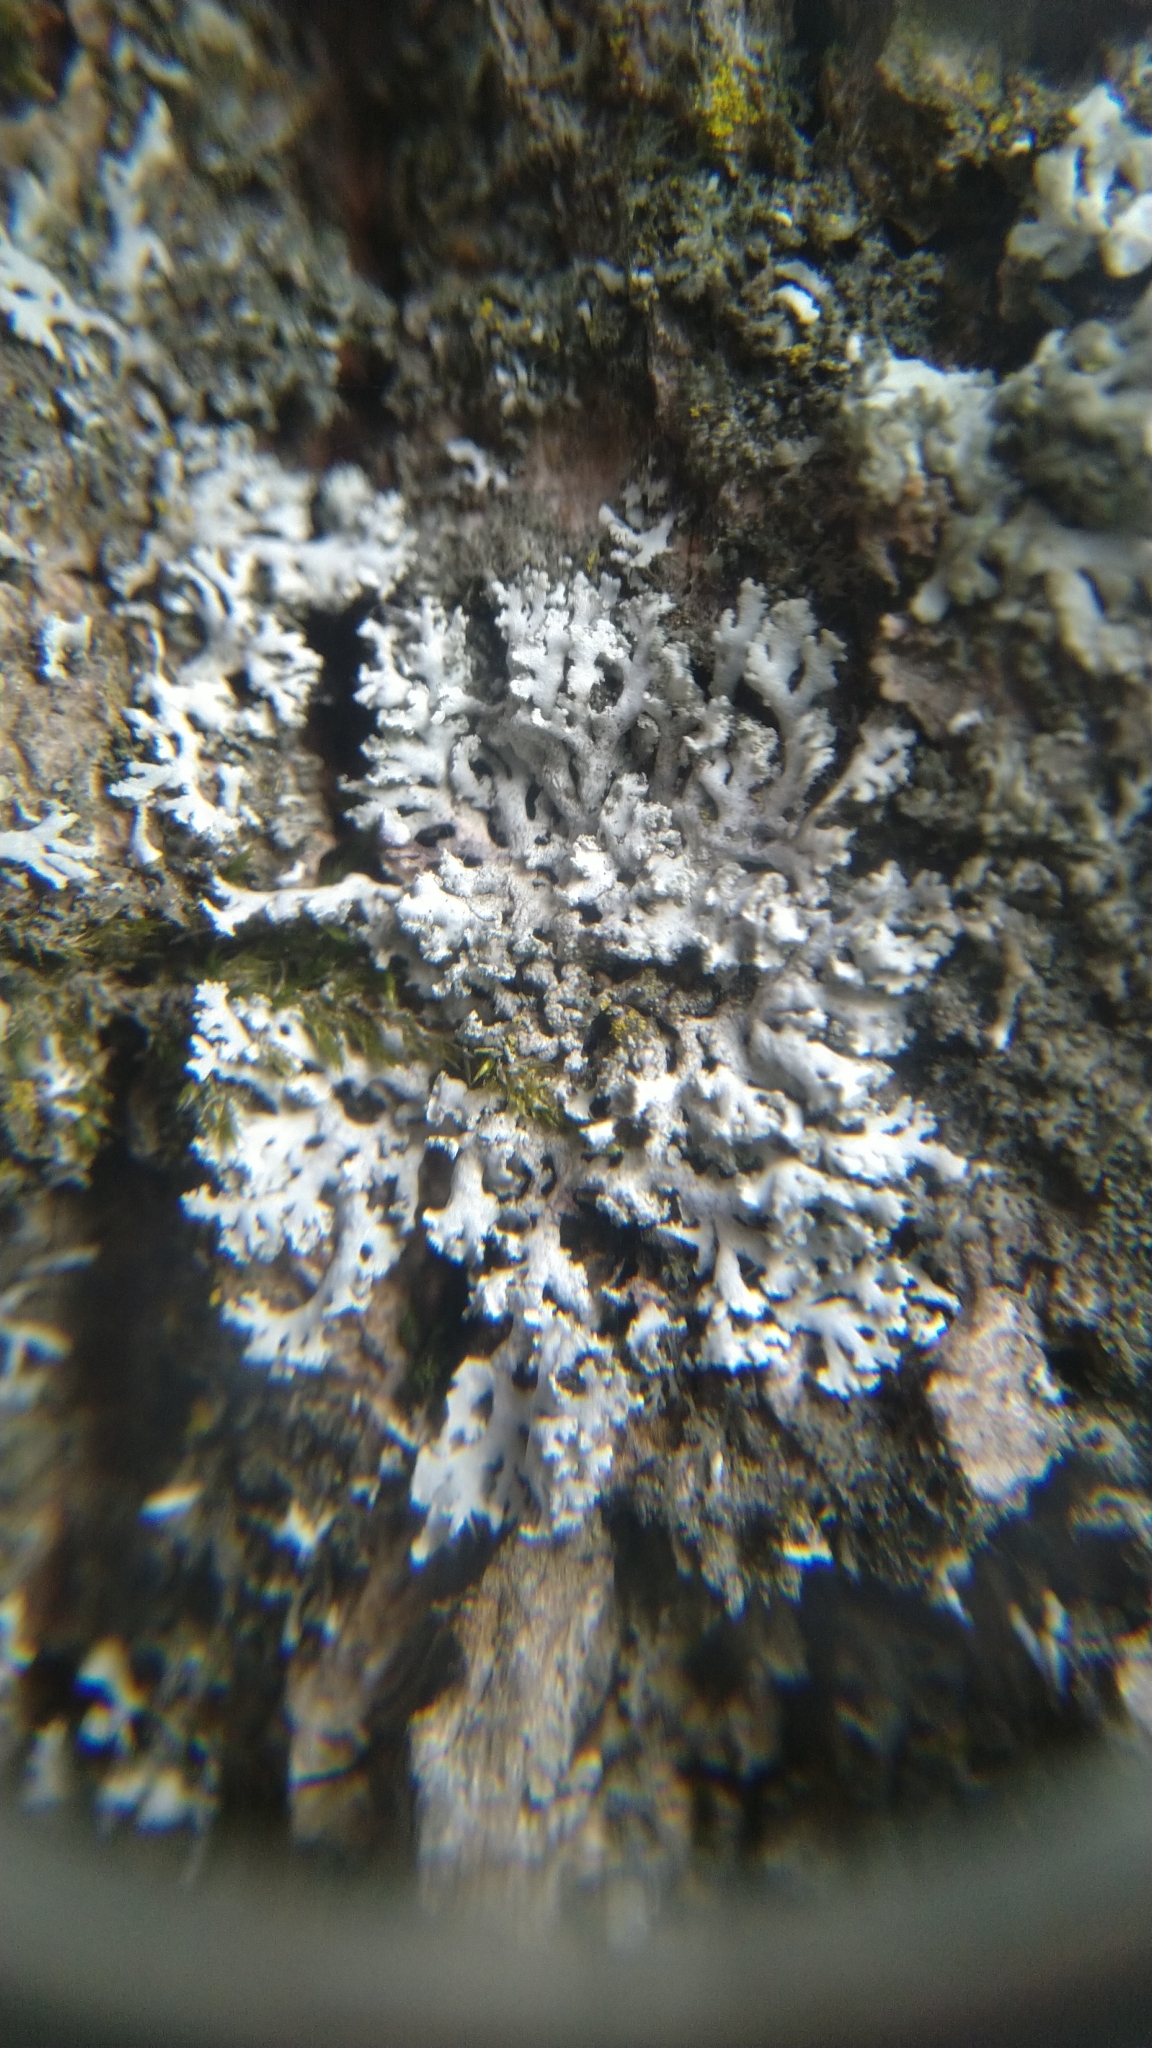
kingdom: Fungi
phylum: Ascomycota
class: Lecanoromycetes
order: Caliciales
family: Physciaceae
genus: Physcia
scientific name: Physcia
